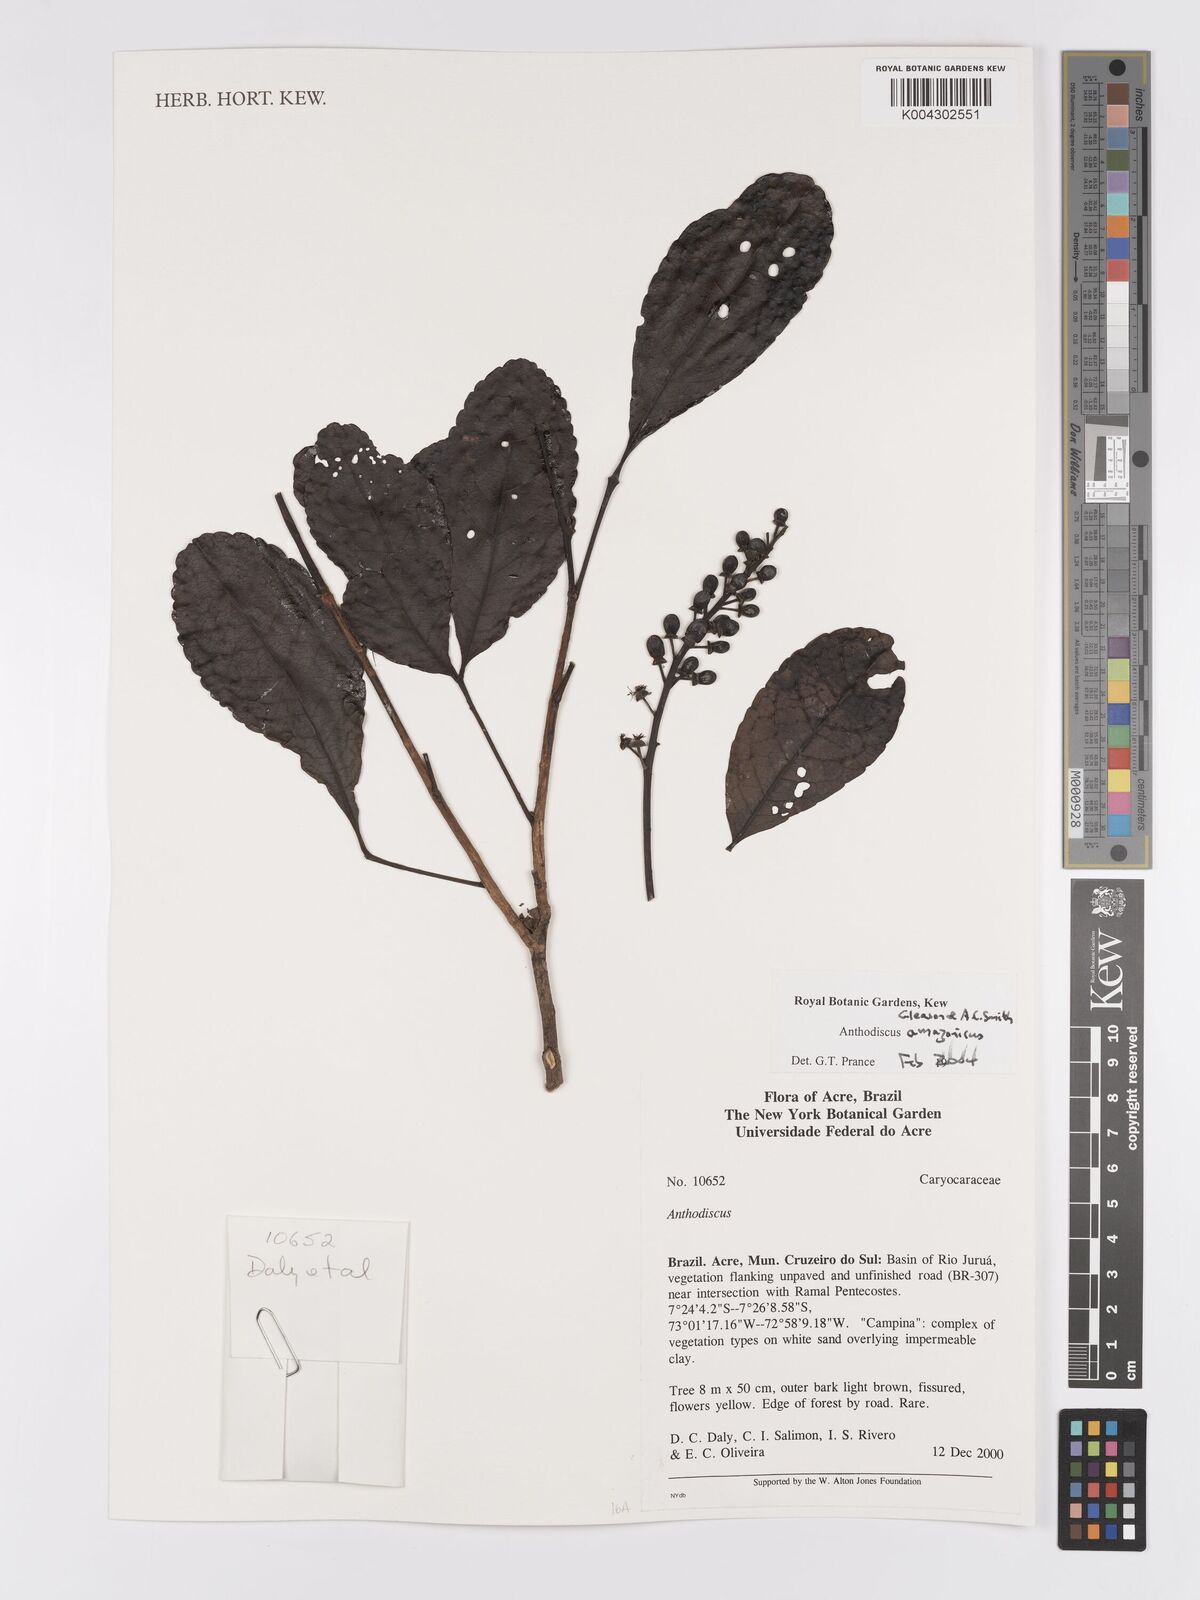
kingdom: Plantae
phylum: Tracheophyta
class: Magnoliopsida
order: Malpighiales
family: Caryocaraceae
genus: Anthodiscus
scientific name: Anthodiscus amazonicus
